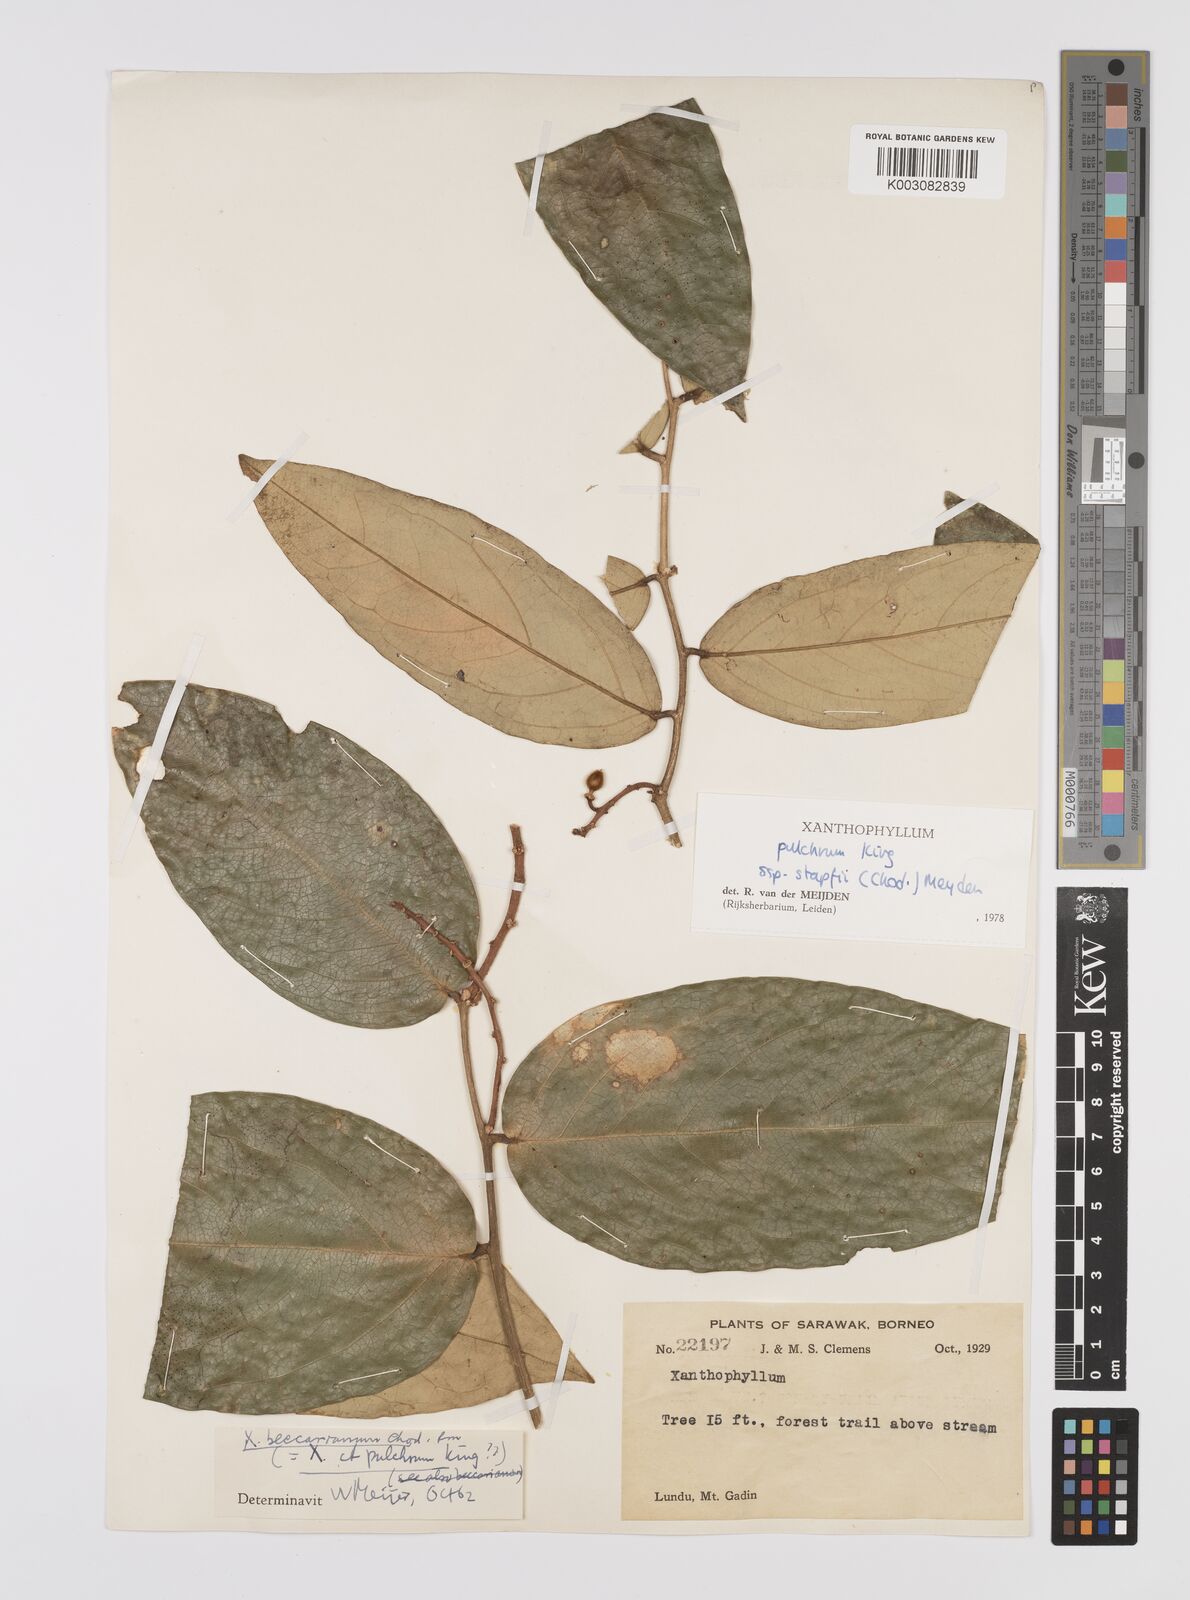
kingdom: Plantae
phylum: Tracheophyta
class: Magnoliopsida
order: Fabales
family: Polygalaceae
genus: Xanthophyllum
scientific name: Xanthophyllum pulchrum
